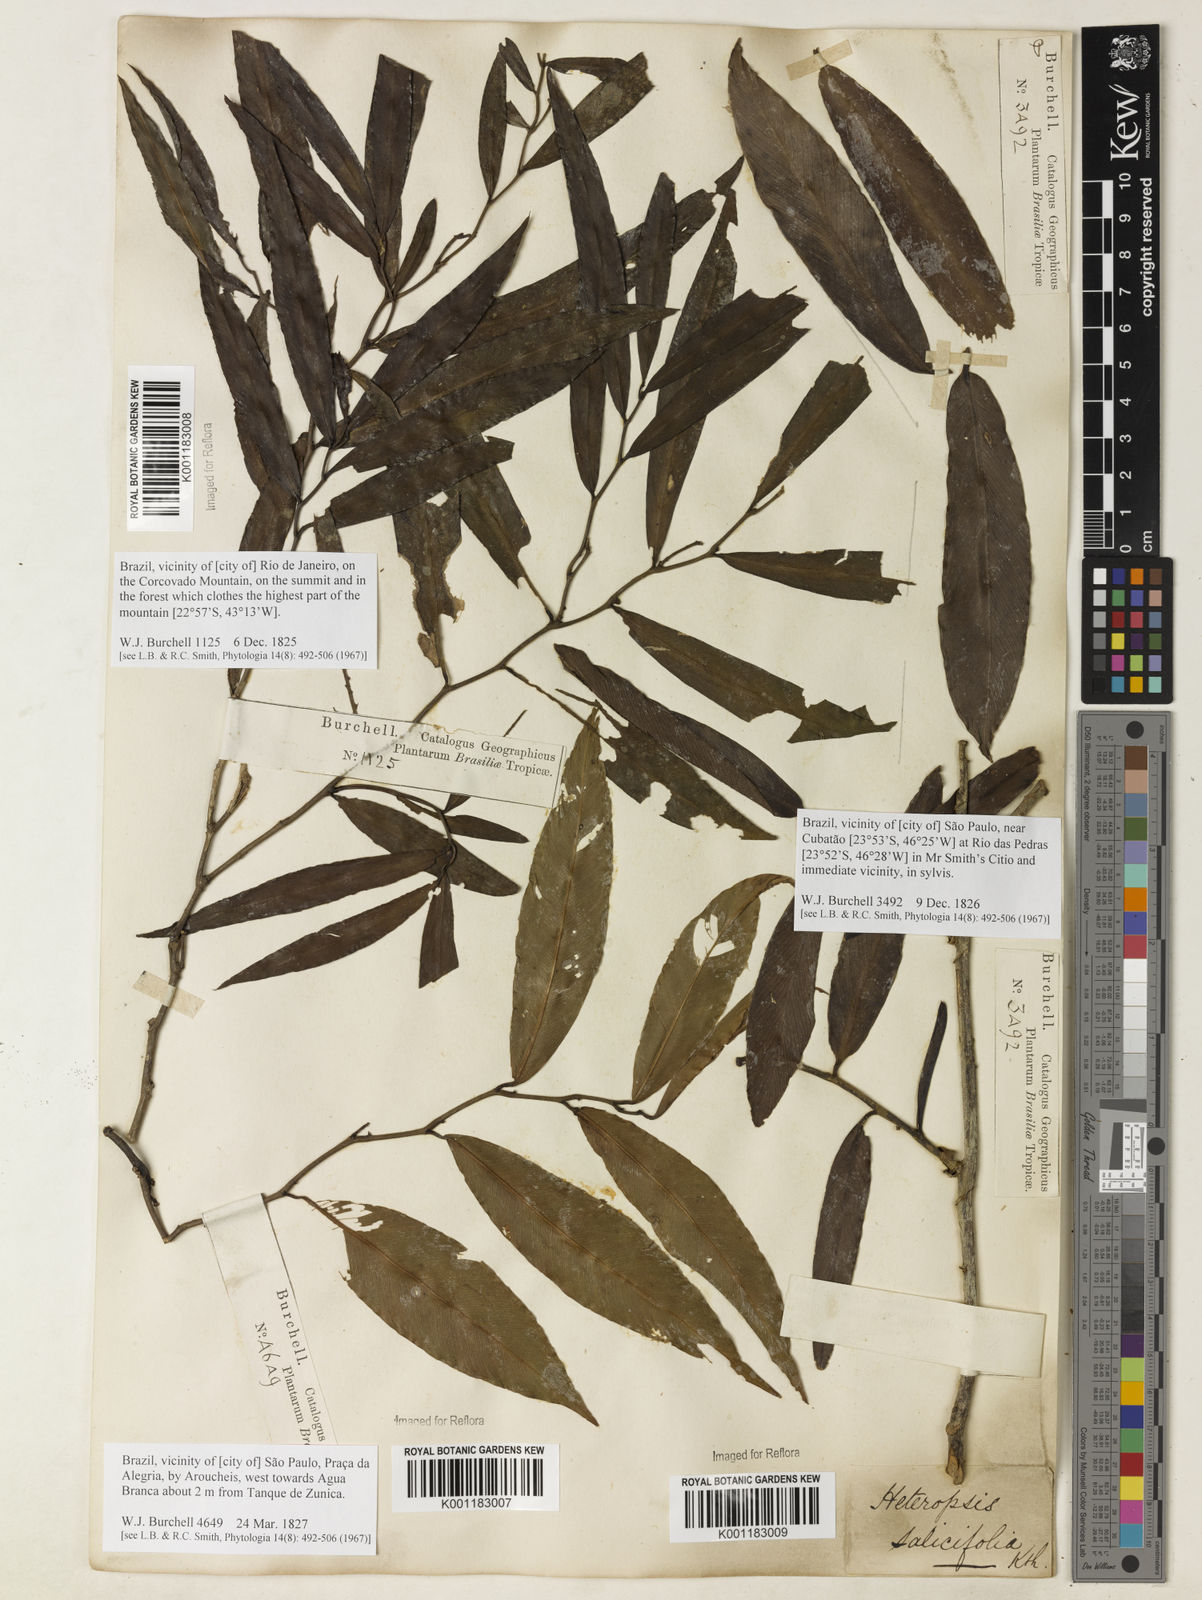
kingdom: Plantae
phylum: Tracheophyta
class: Liliopsida
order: Alismatales
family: Araceae
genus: Heteropsis
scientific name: Heteropsis salicifolia
